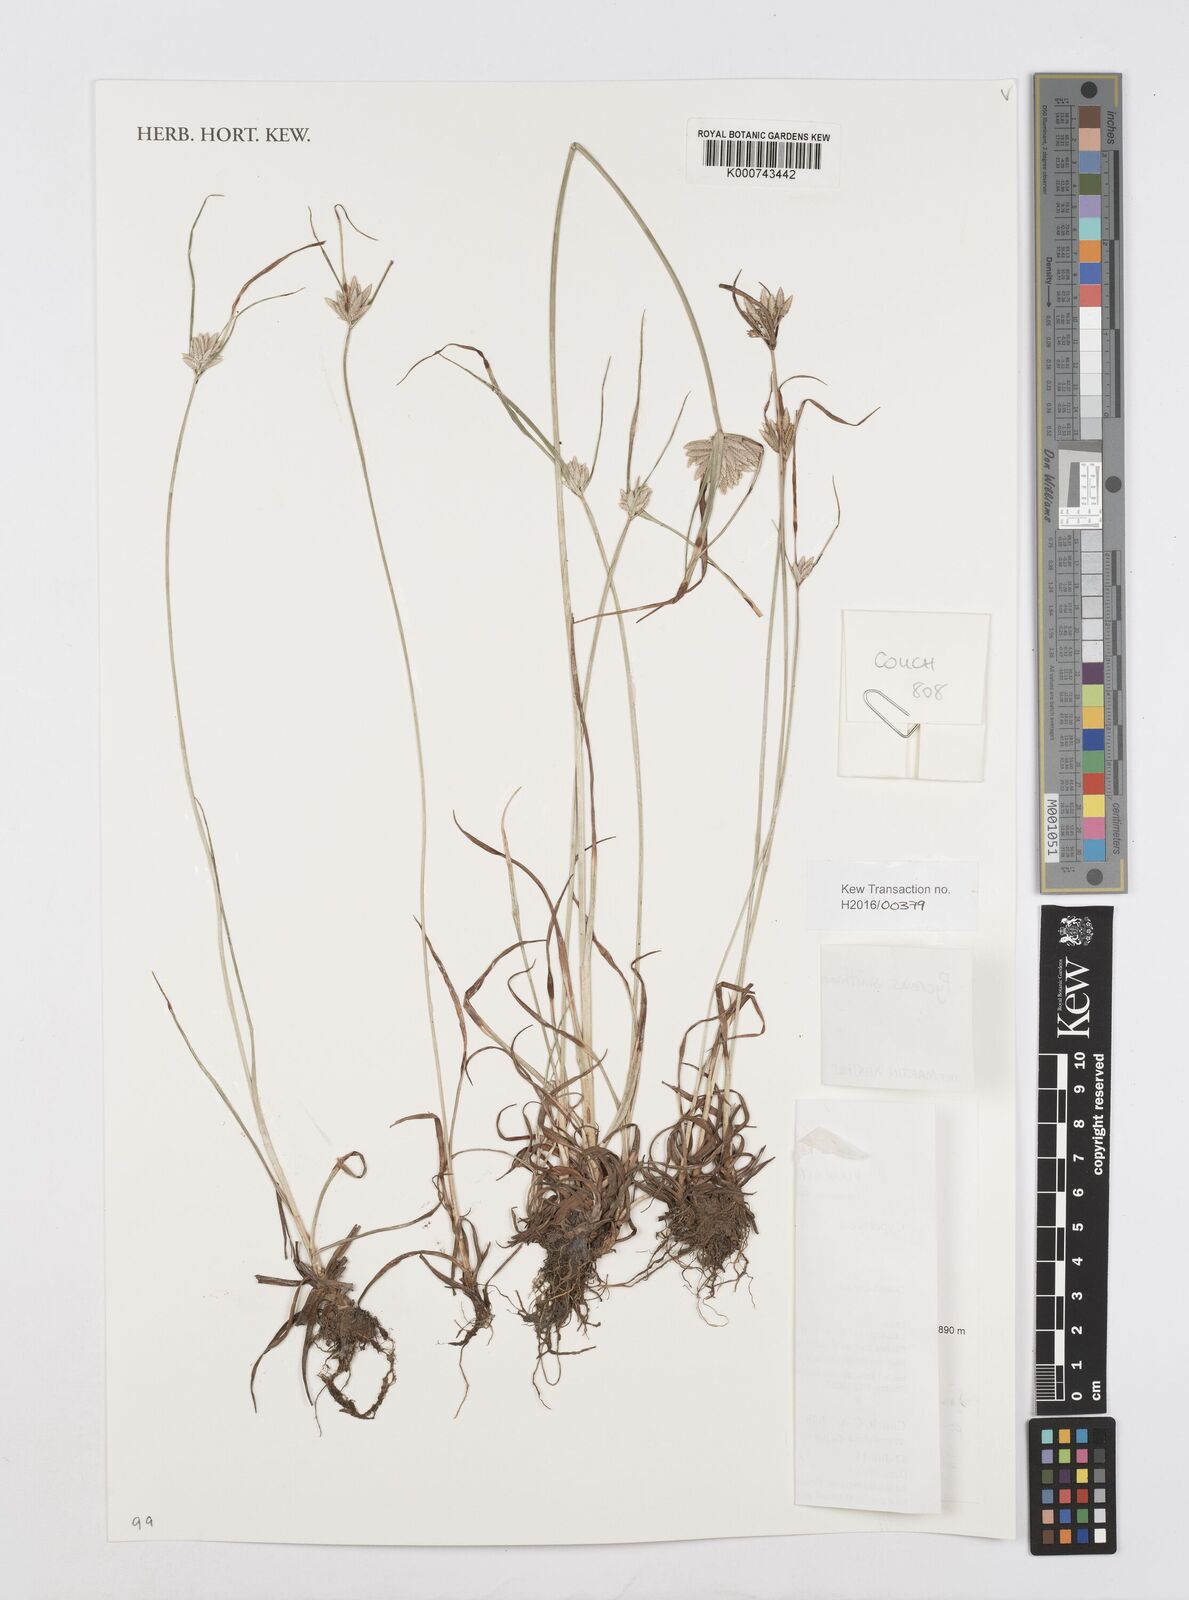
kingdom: Plantae
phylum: Tracheophyta
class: Liliopsida
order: Poales
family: Cyperaceae
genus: Cyperus
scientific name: Cyperus smithianus
